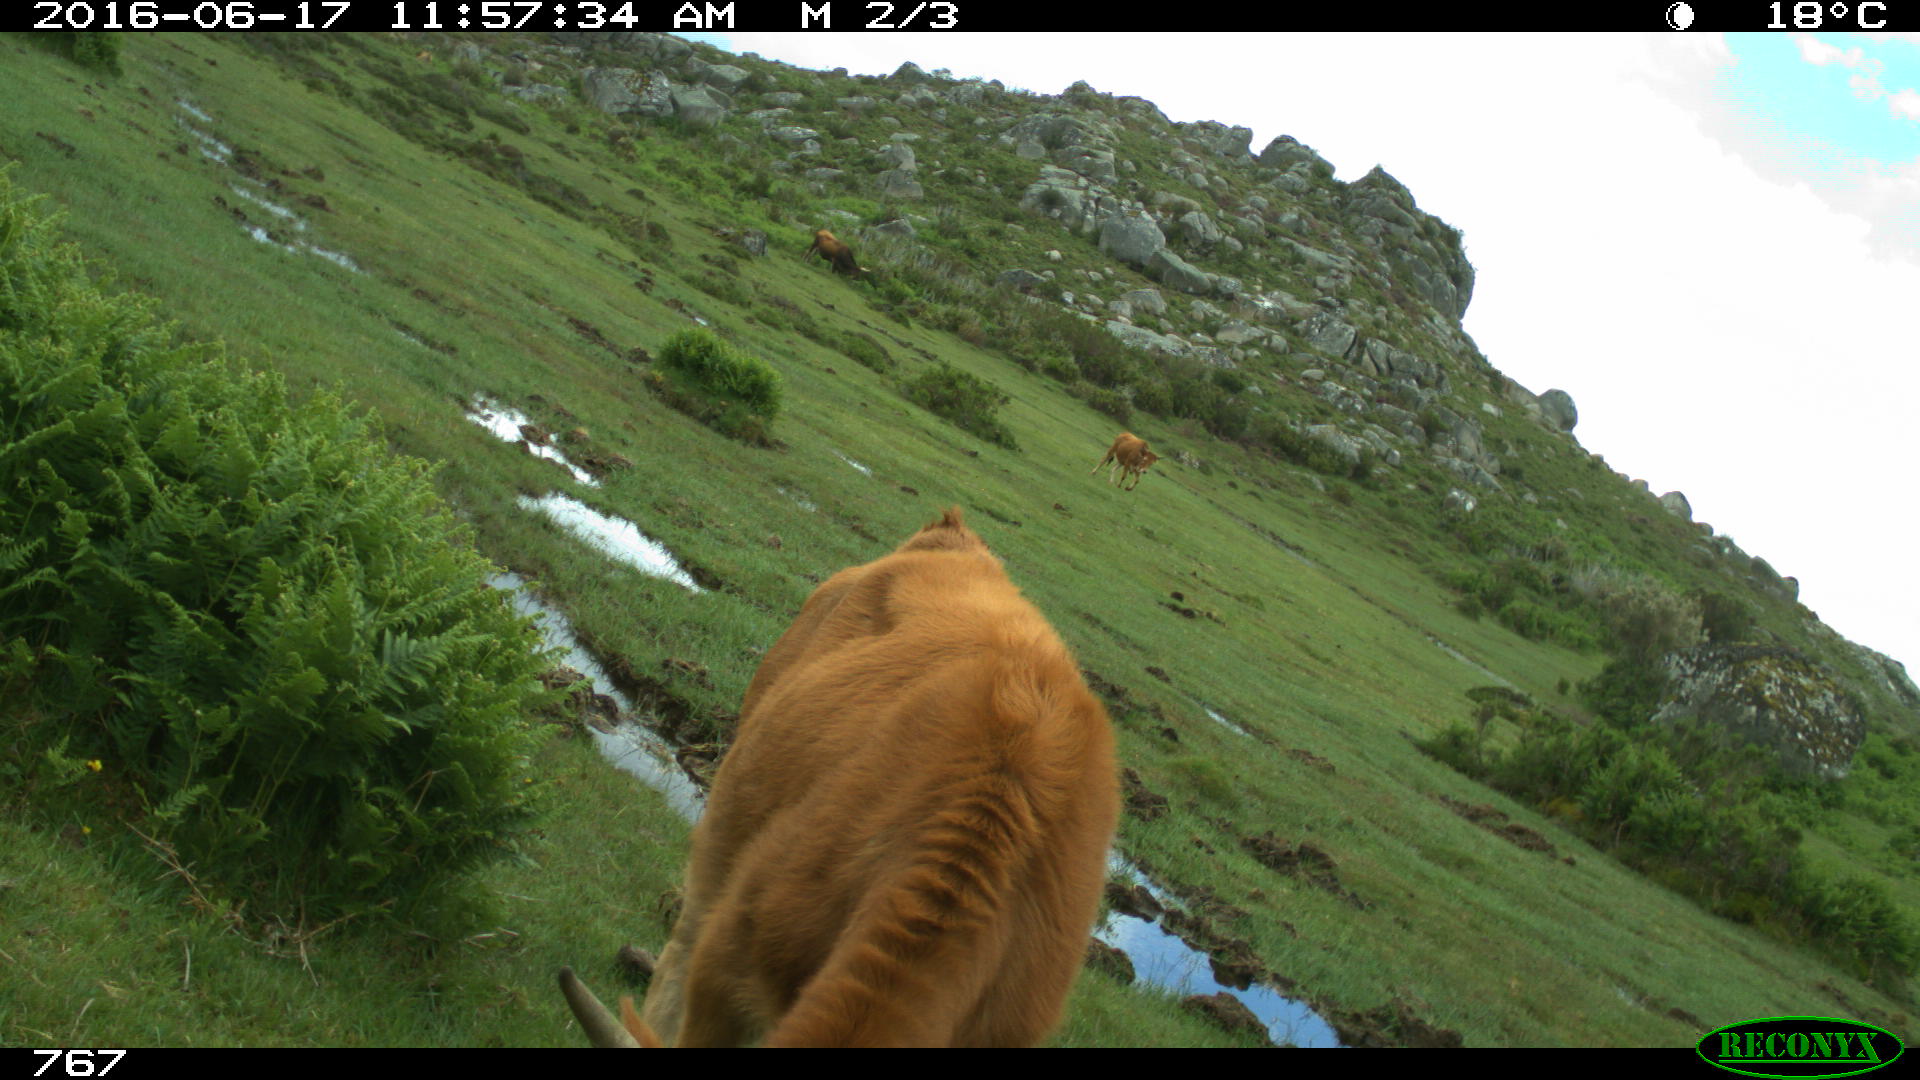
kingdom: Animalia
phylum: Chordata
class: Mammalia
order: Artiodactyla
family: Bovidae
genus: Bos
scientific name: Bos taurus
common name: Domesticated cattle
